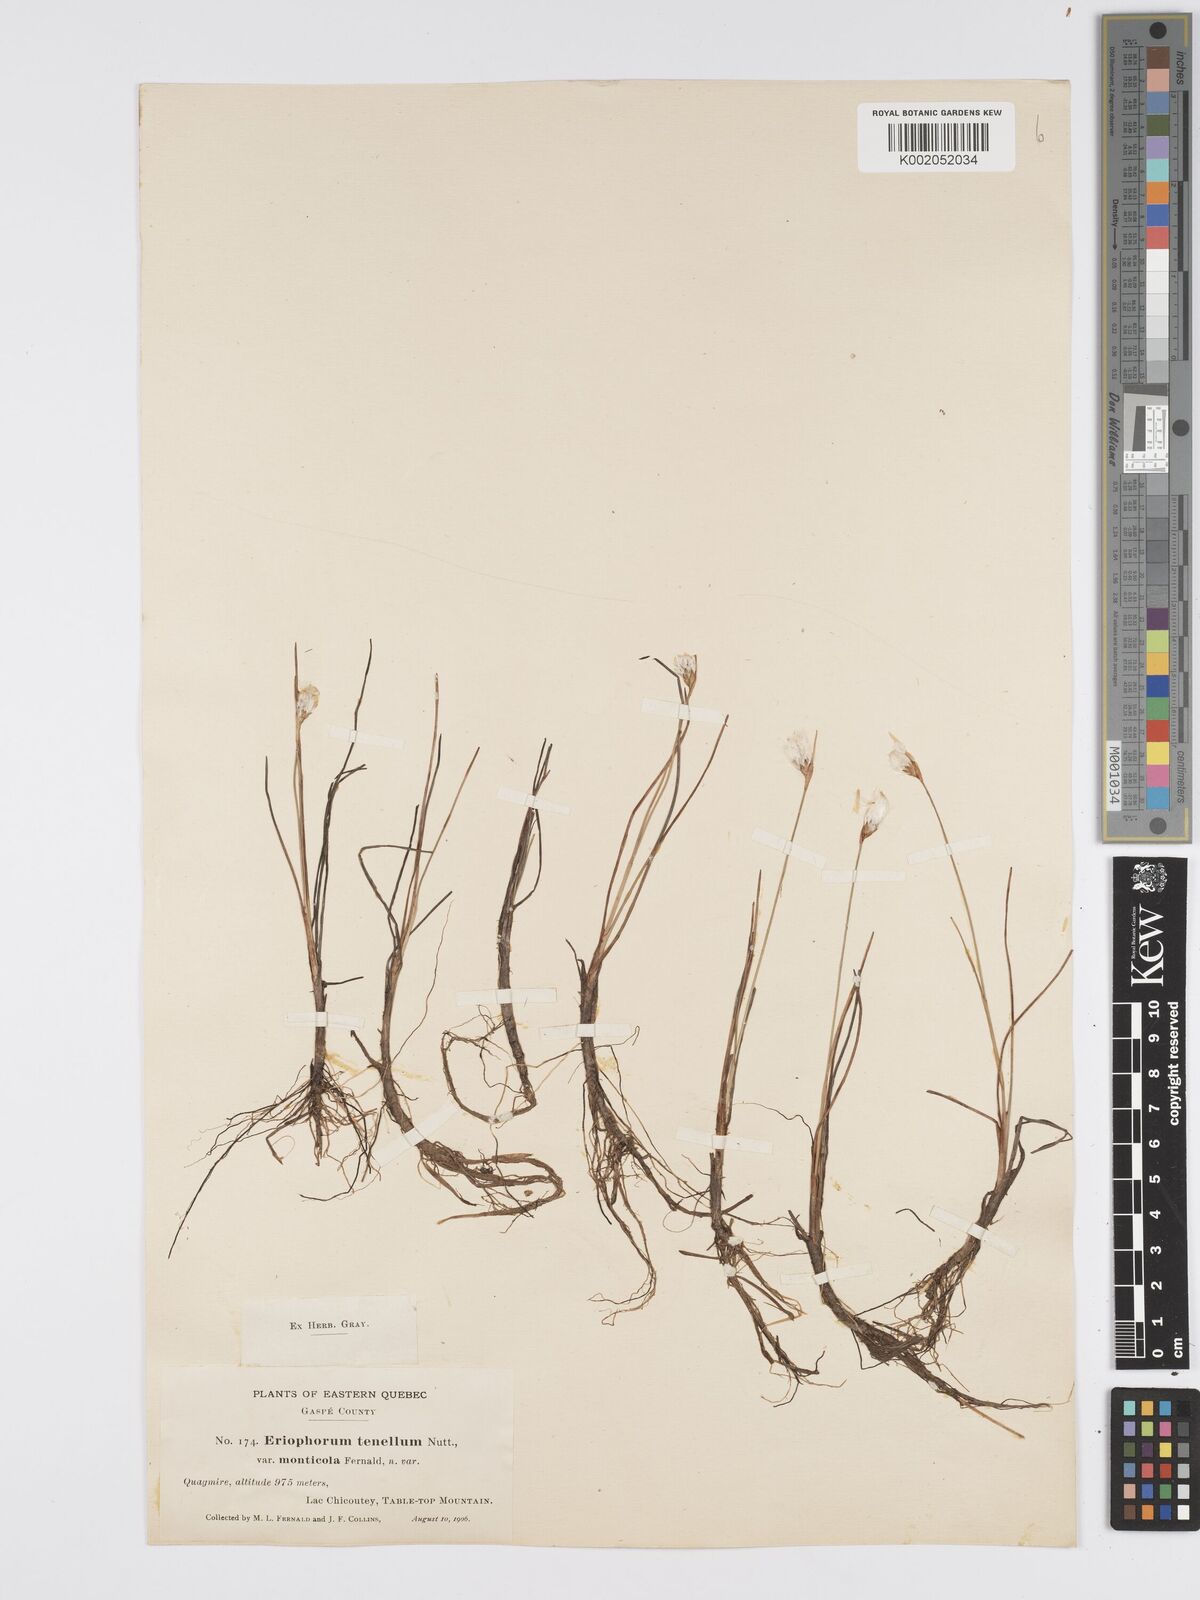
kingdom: Plantae
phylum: Tracheophyta
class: Liliopsida
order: Poales
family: Cyperaceae
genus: Eriophorum
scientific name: Eriophorum tenellum
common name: Few-nerved cottongrass
